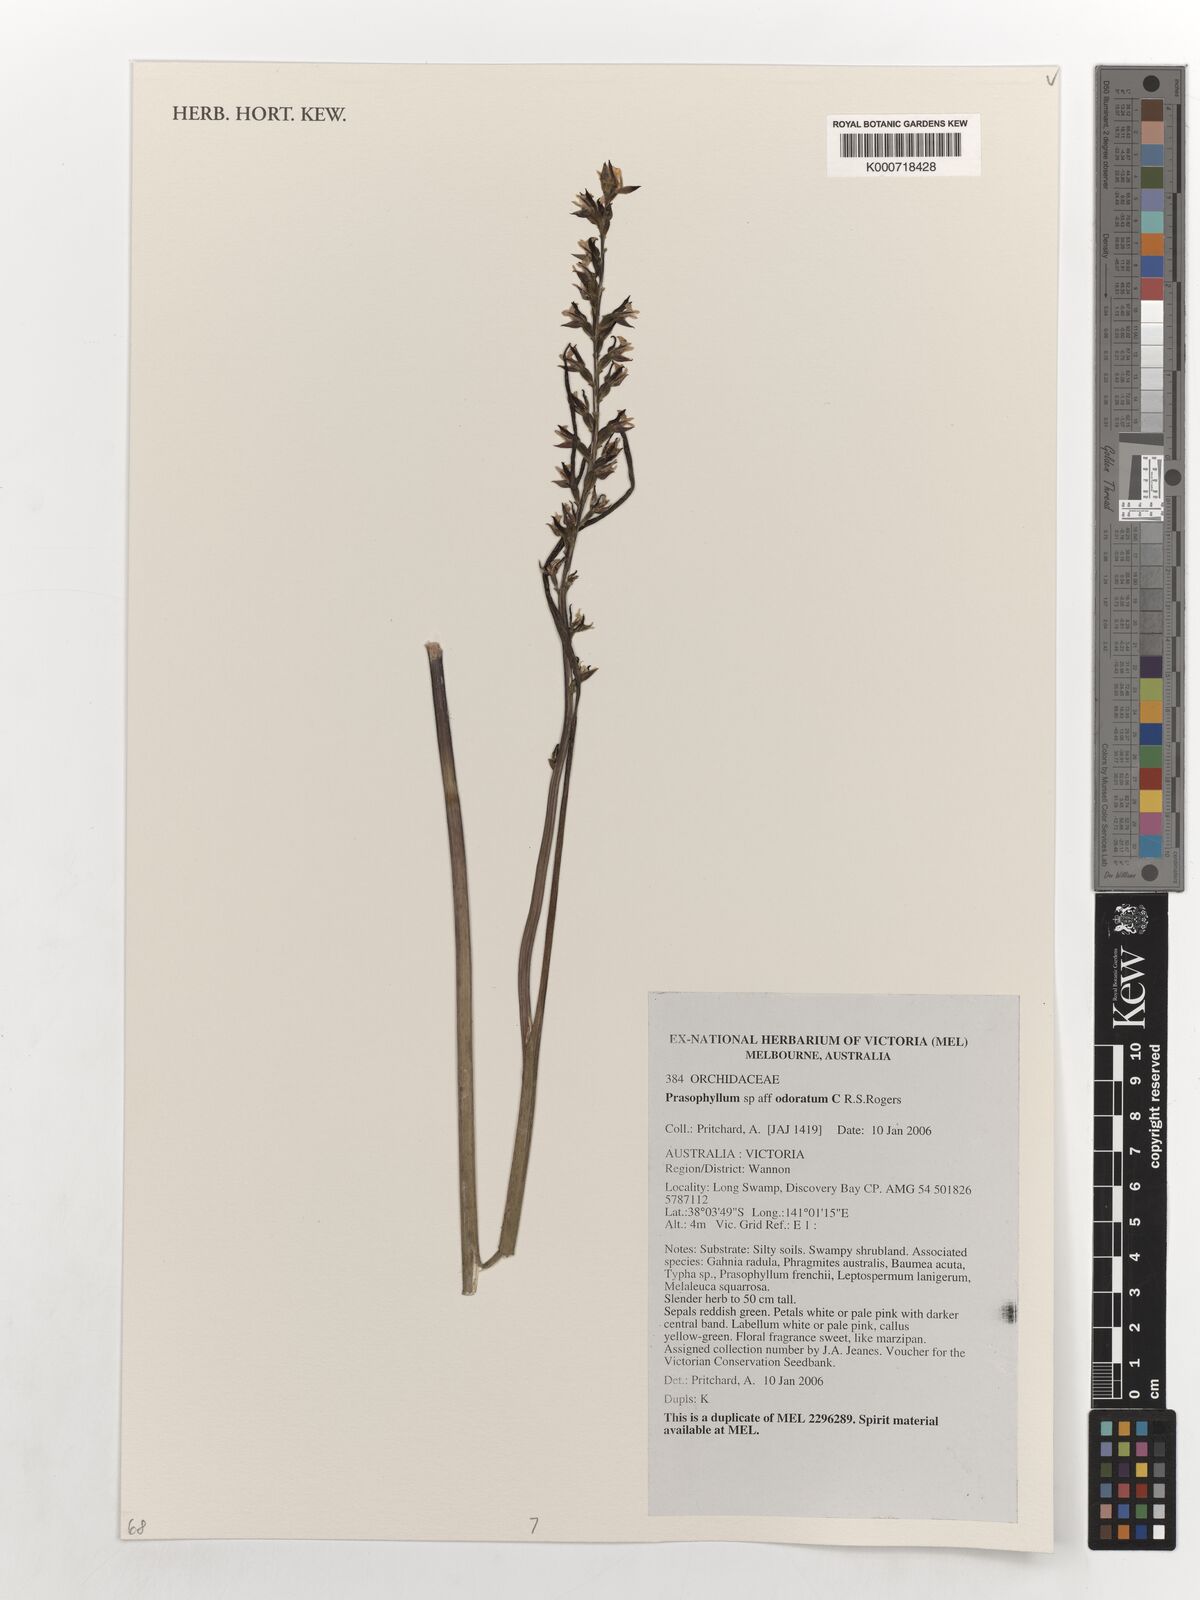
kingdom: Plantae
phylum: Tracheophyta
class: Liliopsida
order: Asparagales
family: Orchidaceae
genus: Prasophyllum
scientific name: Prasophyllum odoratum
